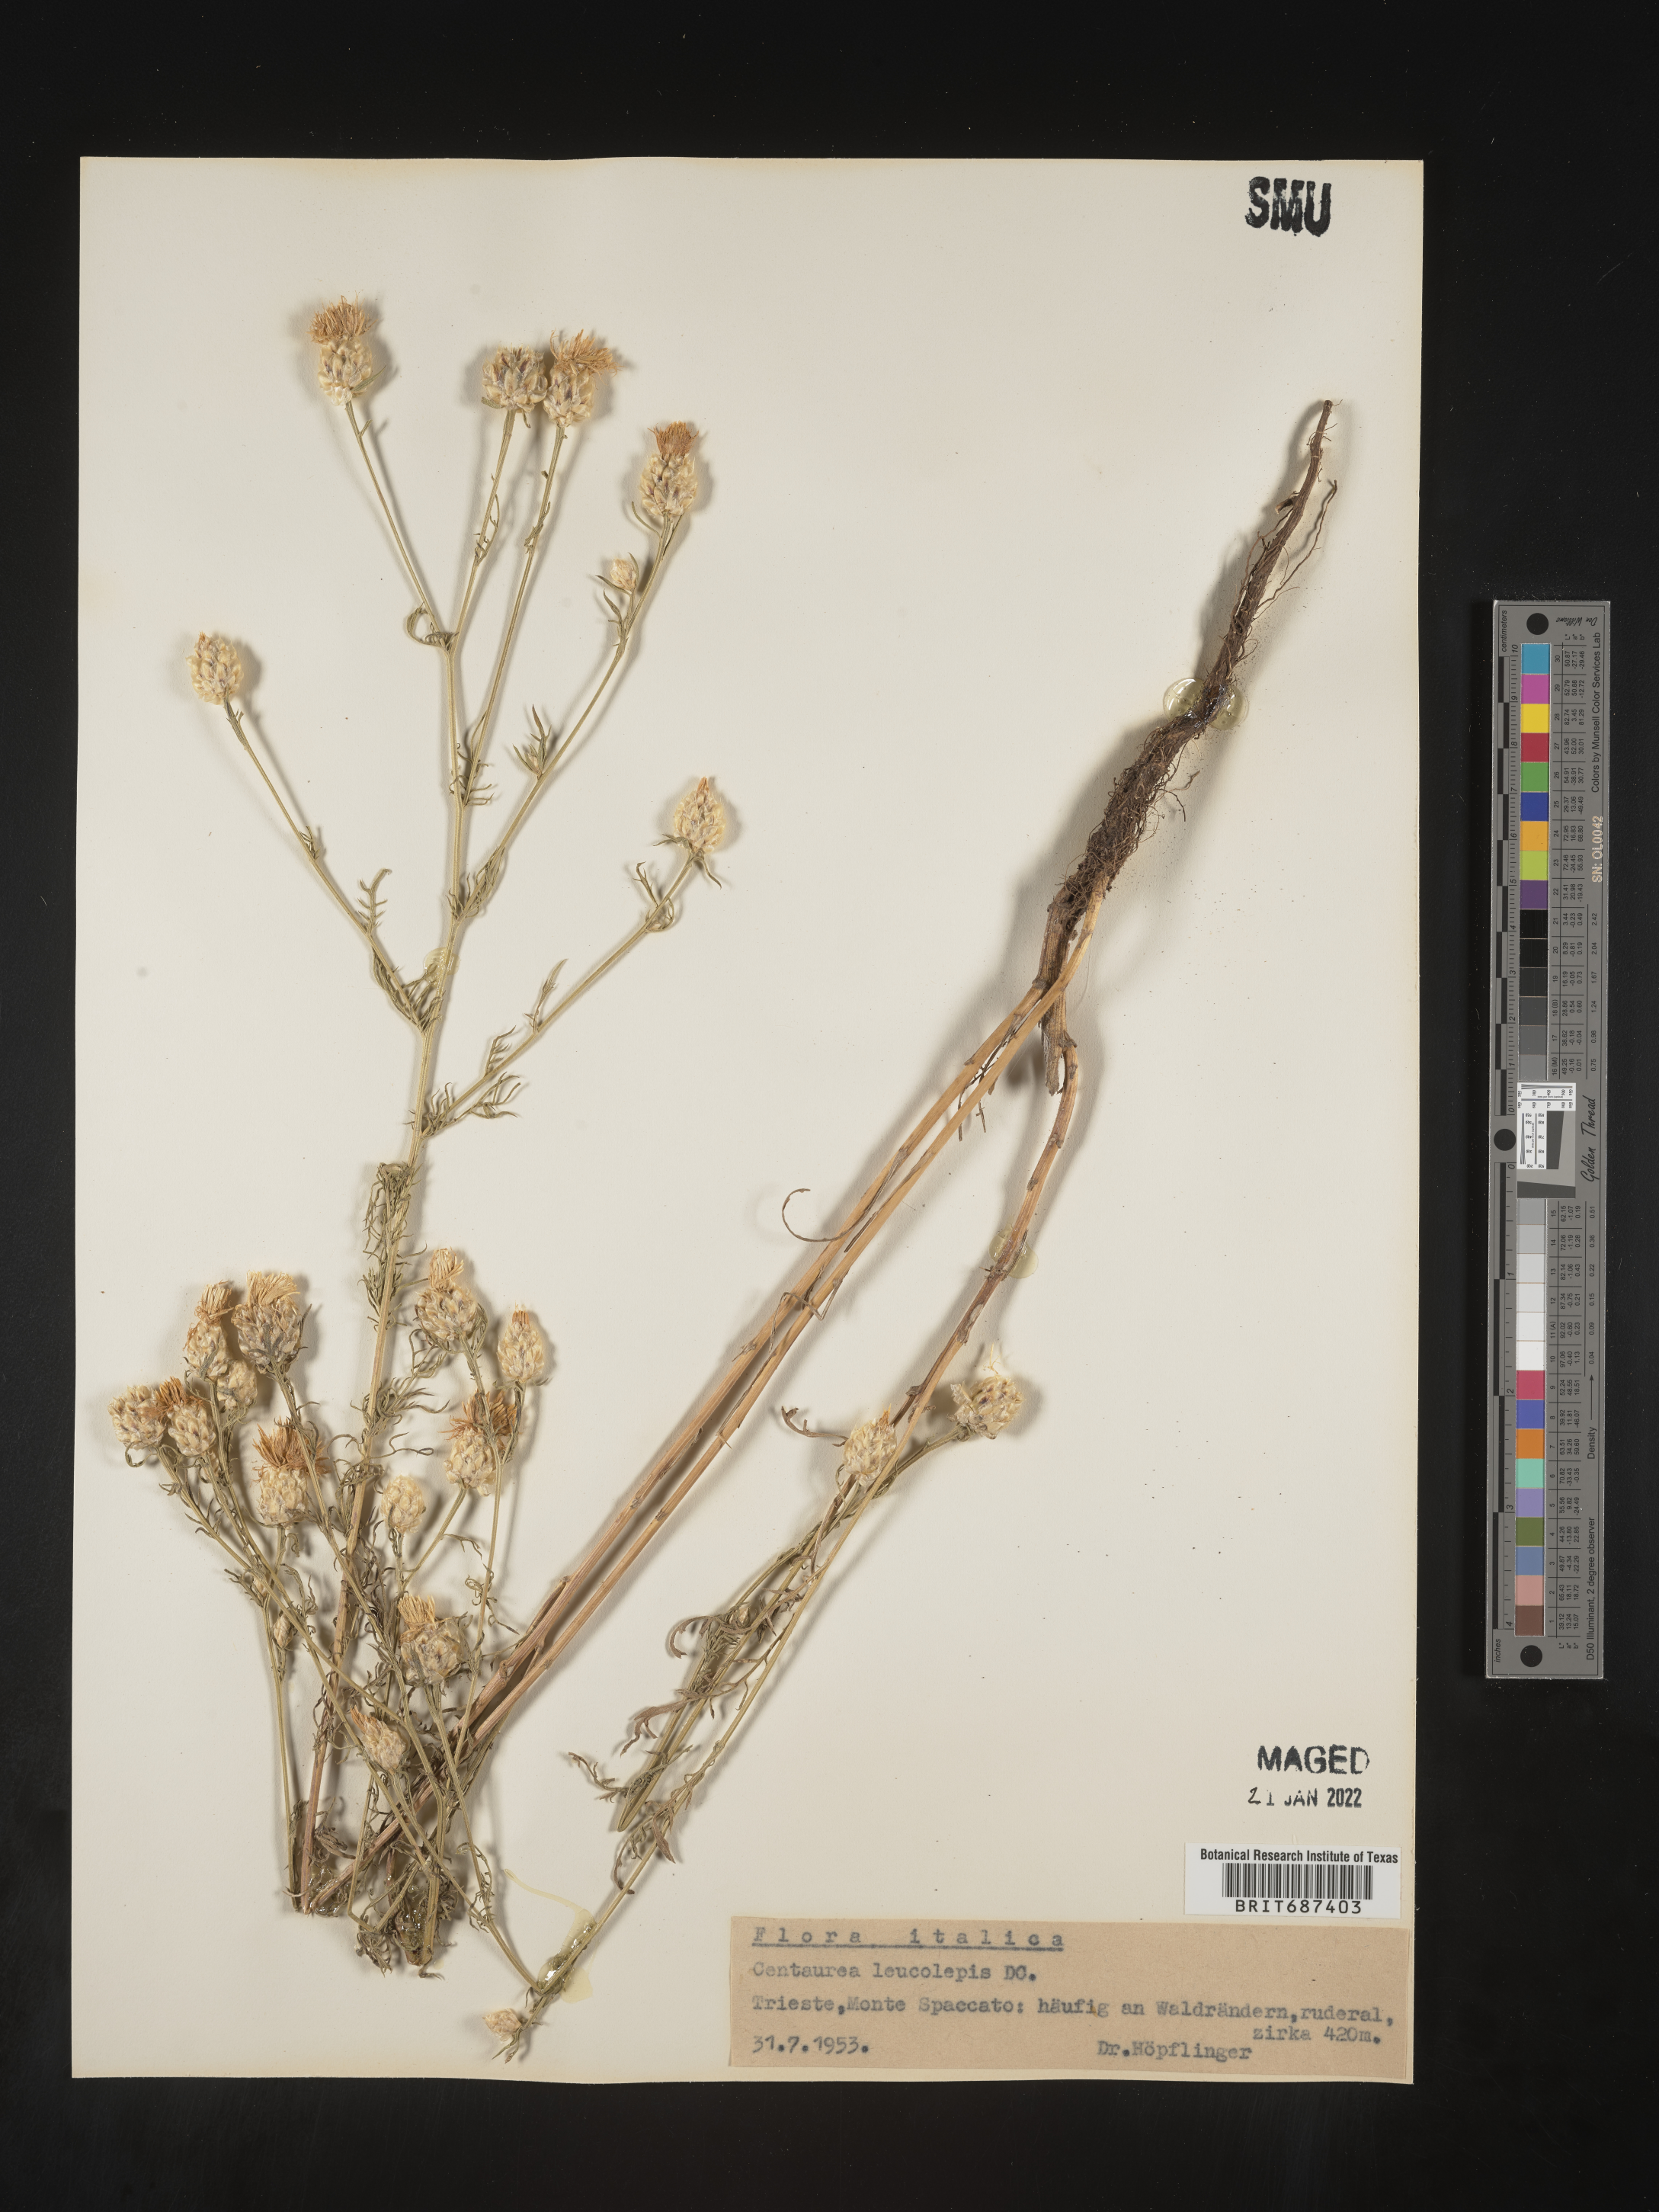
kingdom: Plantae
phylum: Tracheophyta
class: Magnoliopsida
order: Asterales
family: Asteraceae
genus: Centaurea
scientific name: Centaurea
